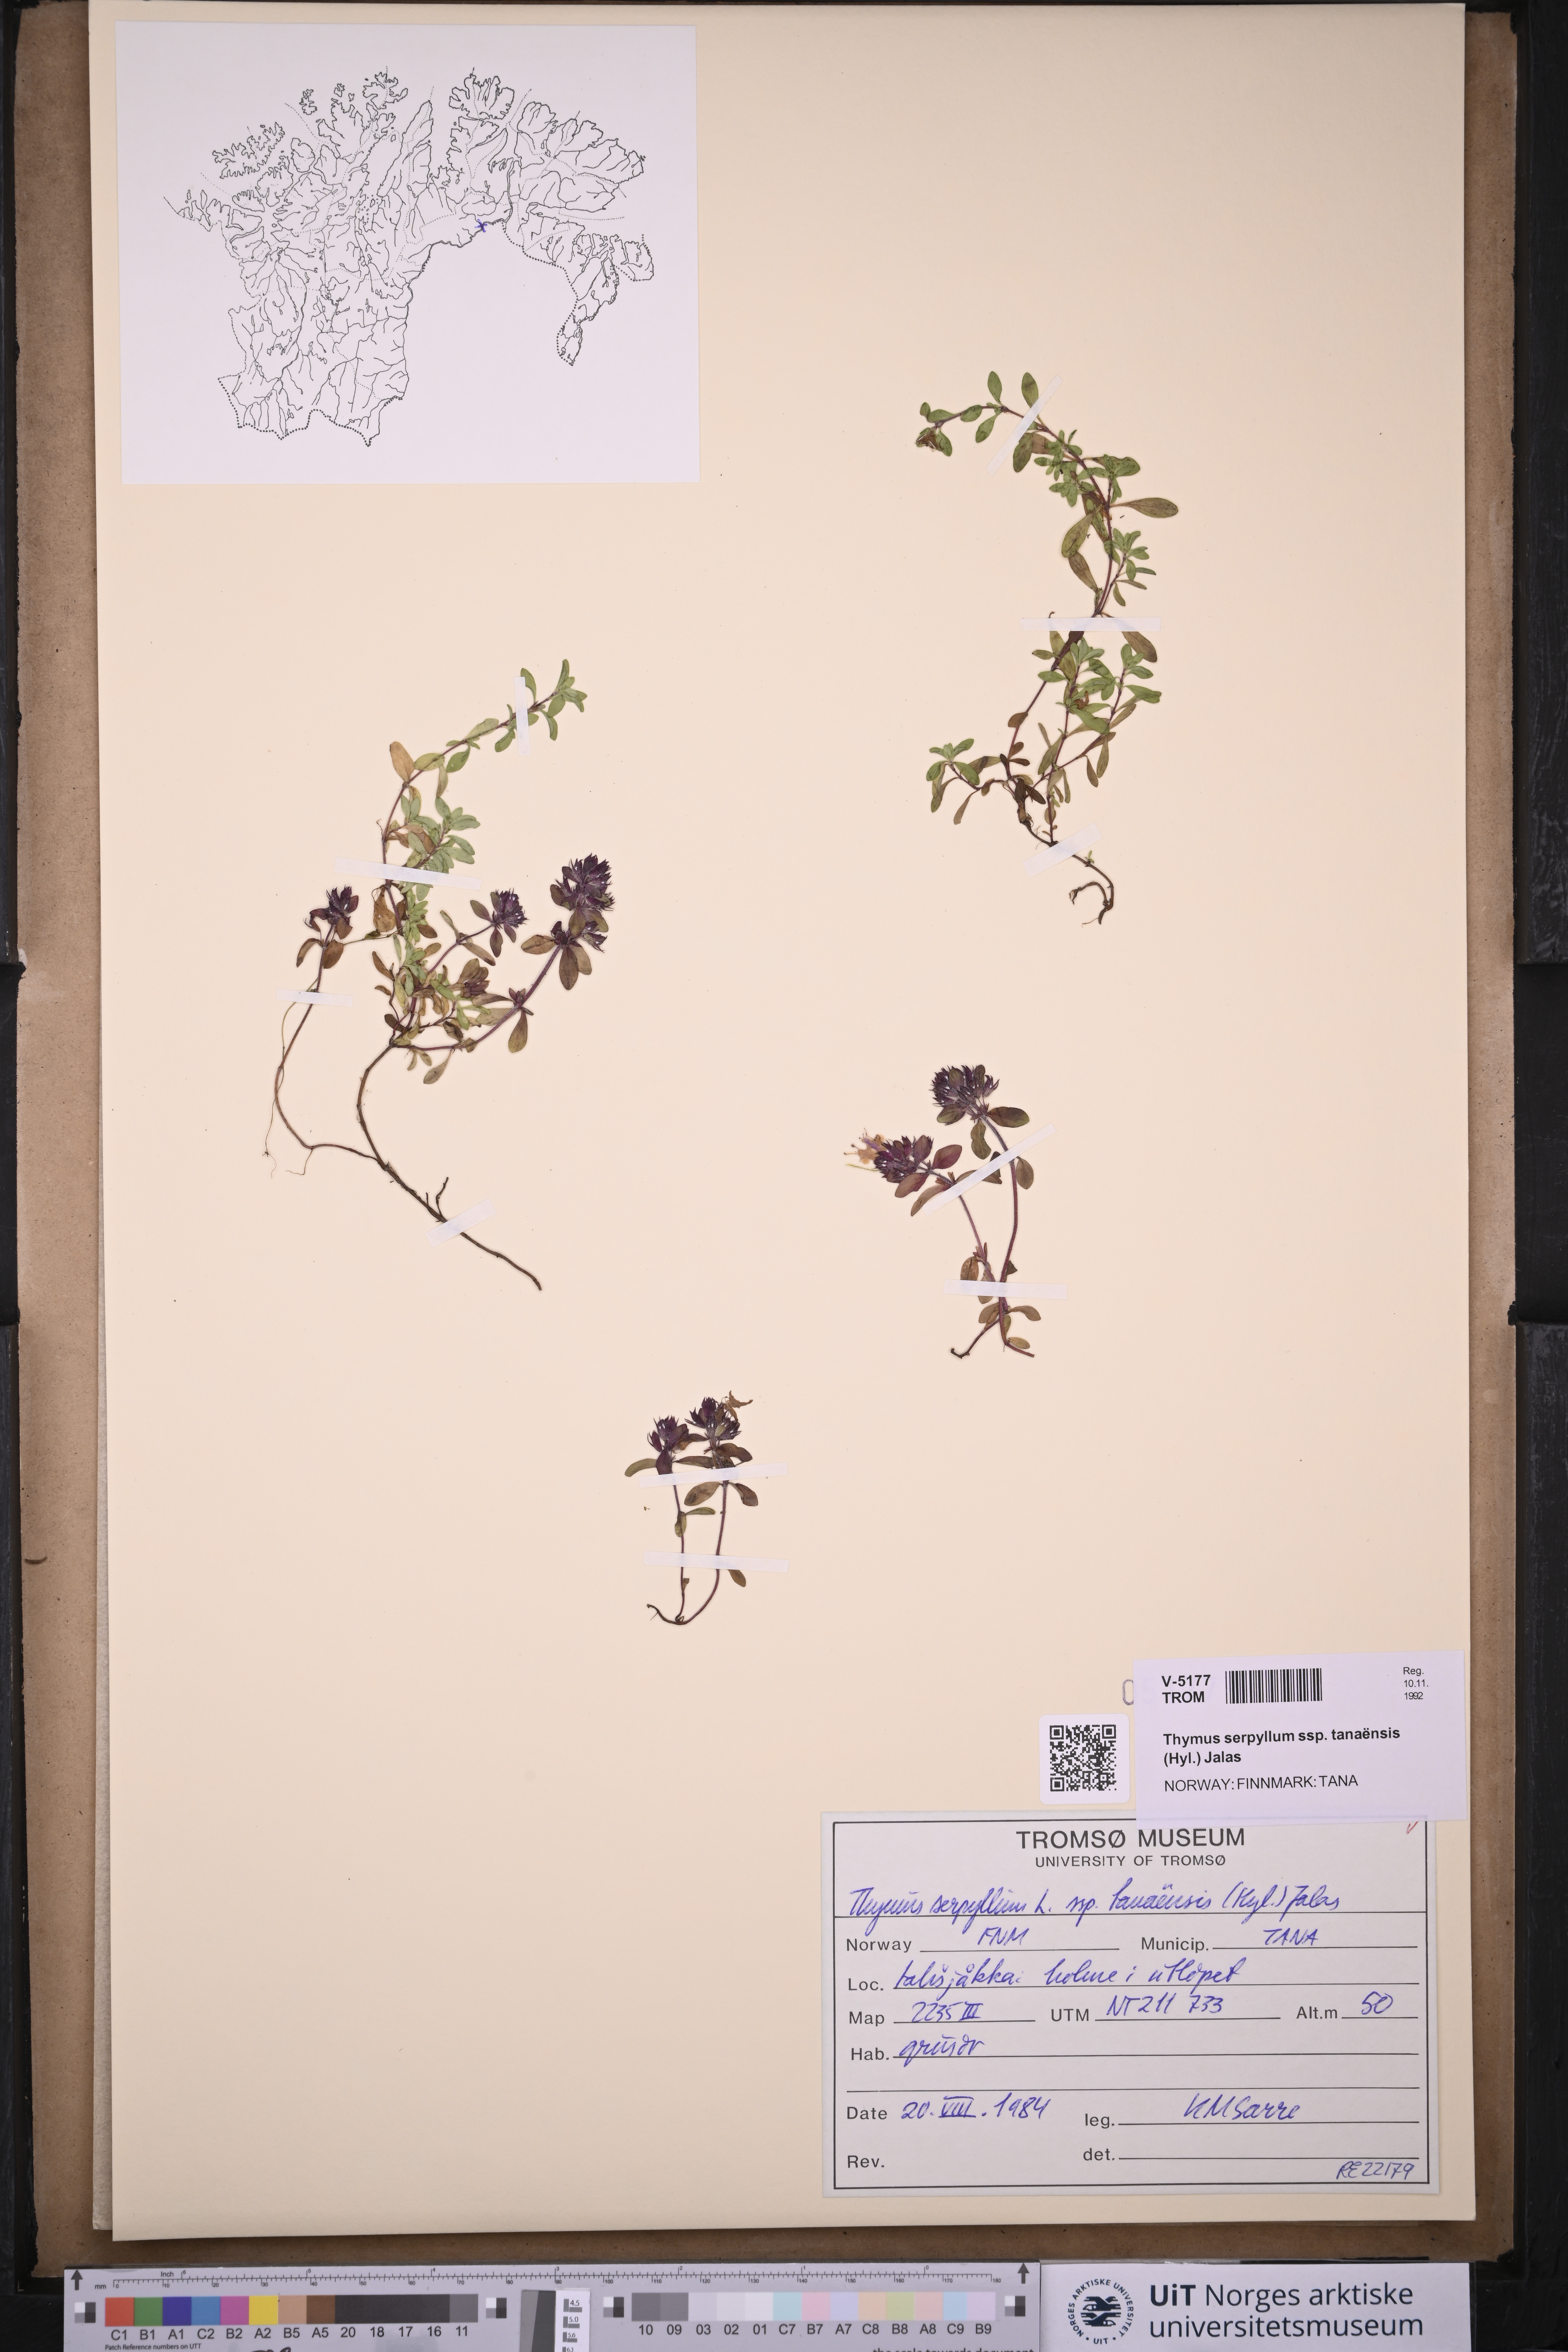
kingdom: Plantae
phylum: Tracheophyta
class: Magnoliopsida
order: Lamiales
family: Lamiaceae
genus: Thymus
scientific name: Thymus serpyllum
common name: Breckland thyme
